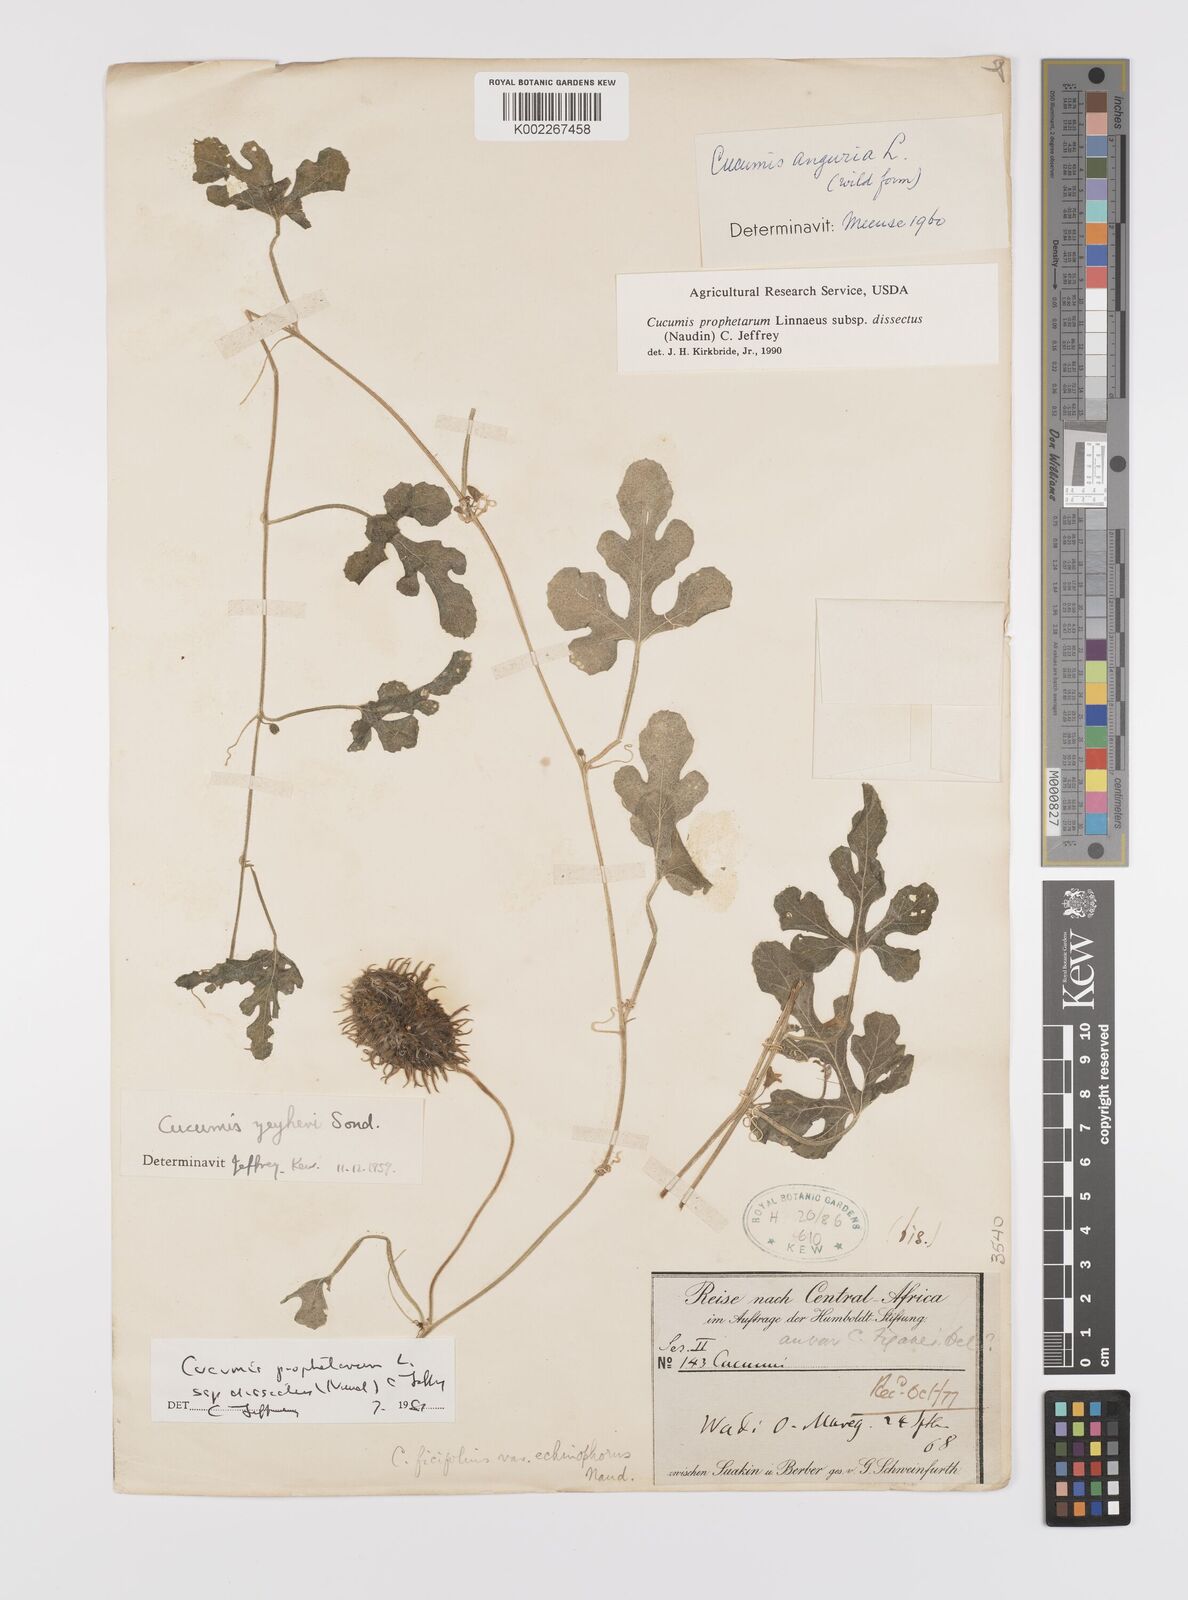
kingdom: Plantae
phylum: Tracheophyta
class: Magnoliopsida
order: Cucurbitales
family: Cucurbitaceae
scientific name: Cucurbitaceae
